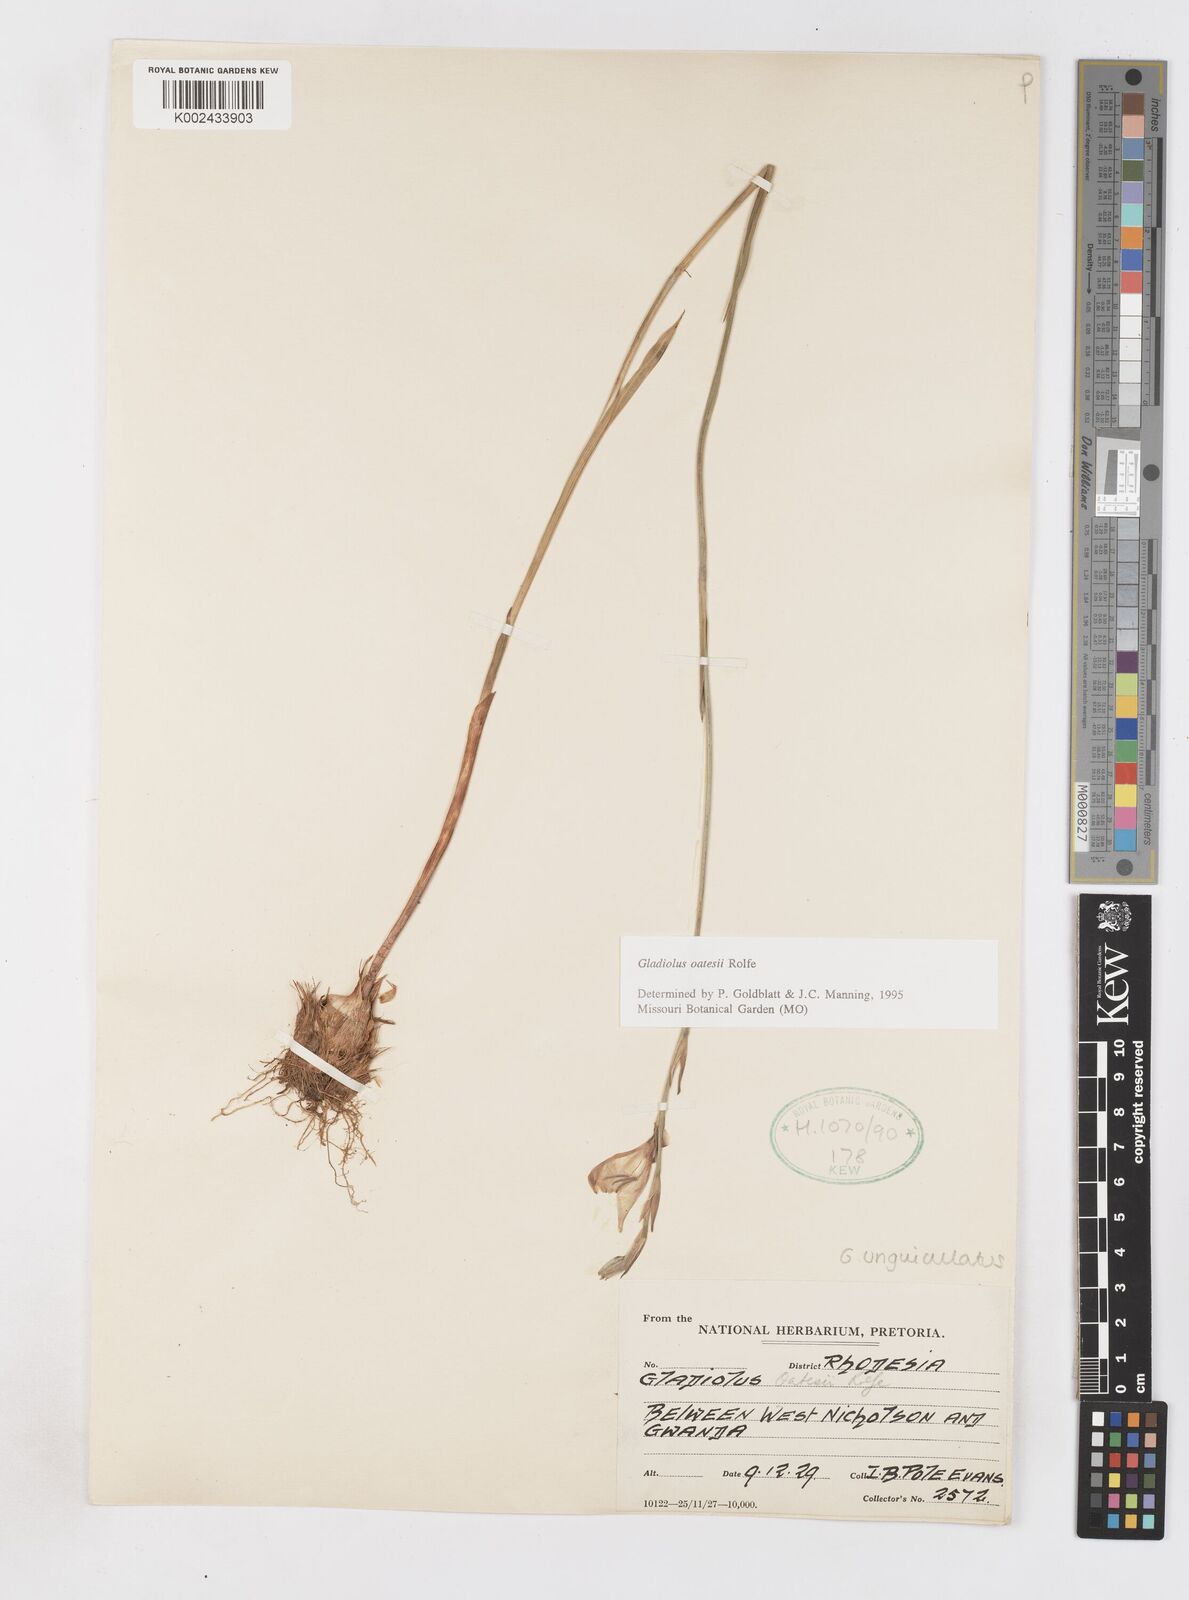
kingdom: Plantae
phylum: Tracheophyta
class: Liliopsida
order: Asparagales
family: Iridaceae
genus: Gladiolus
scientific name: Gladiolus unguiculatus
